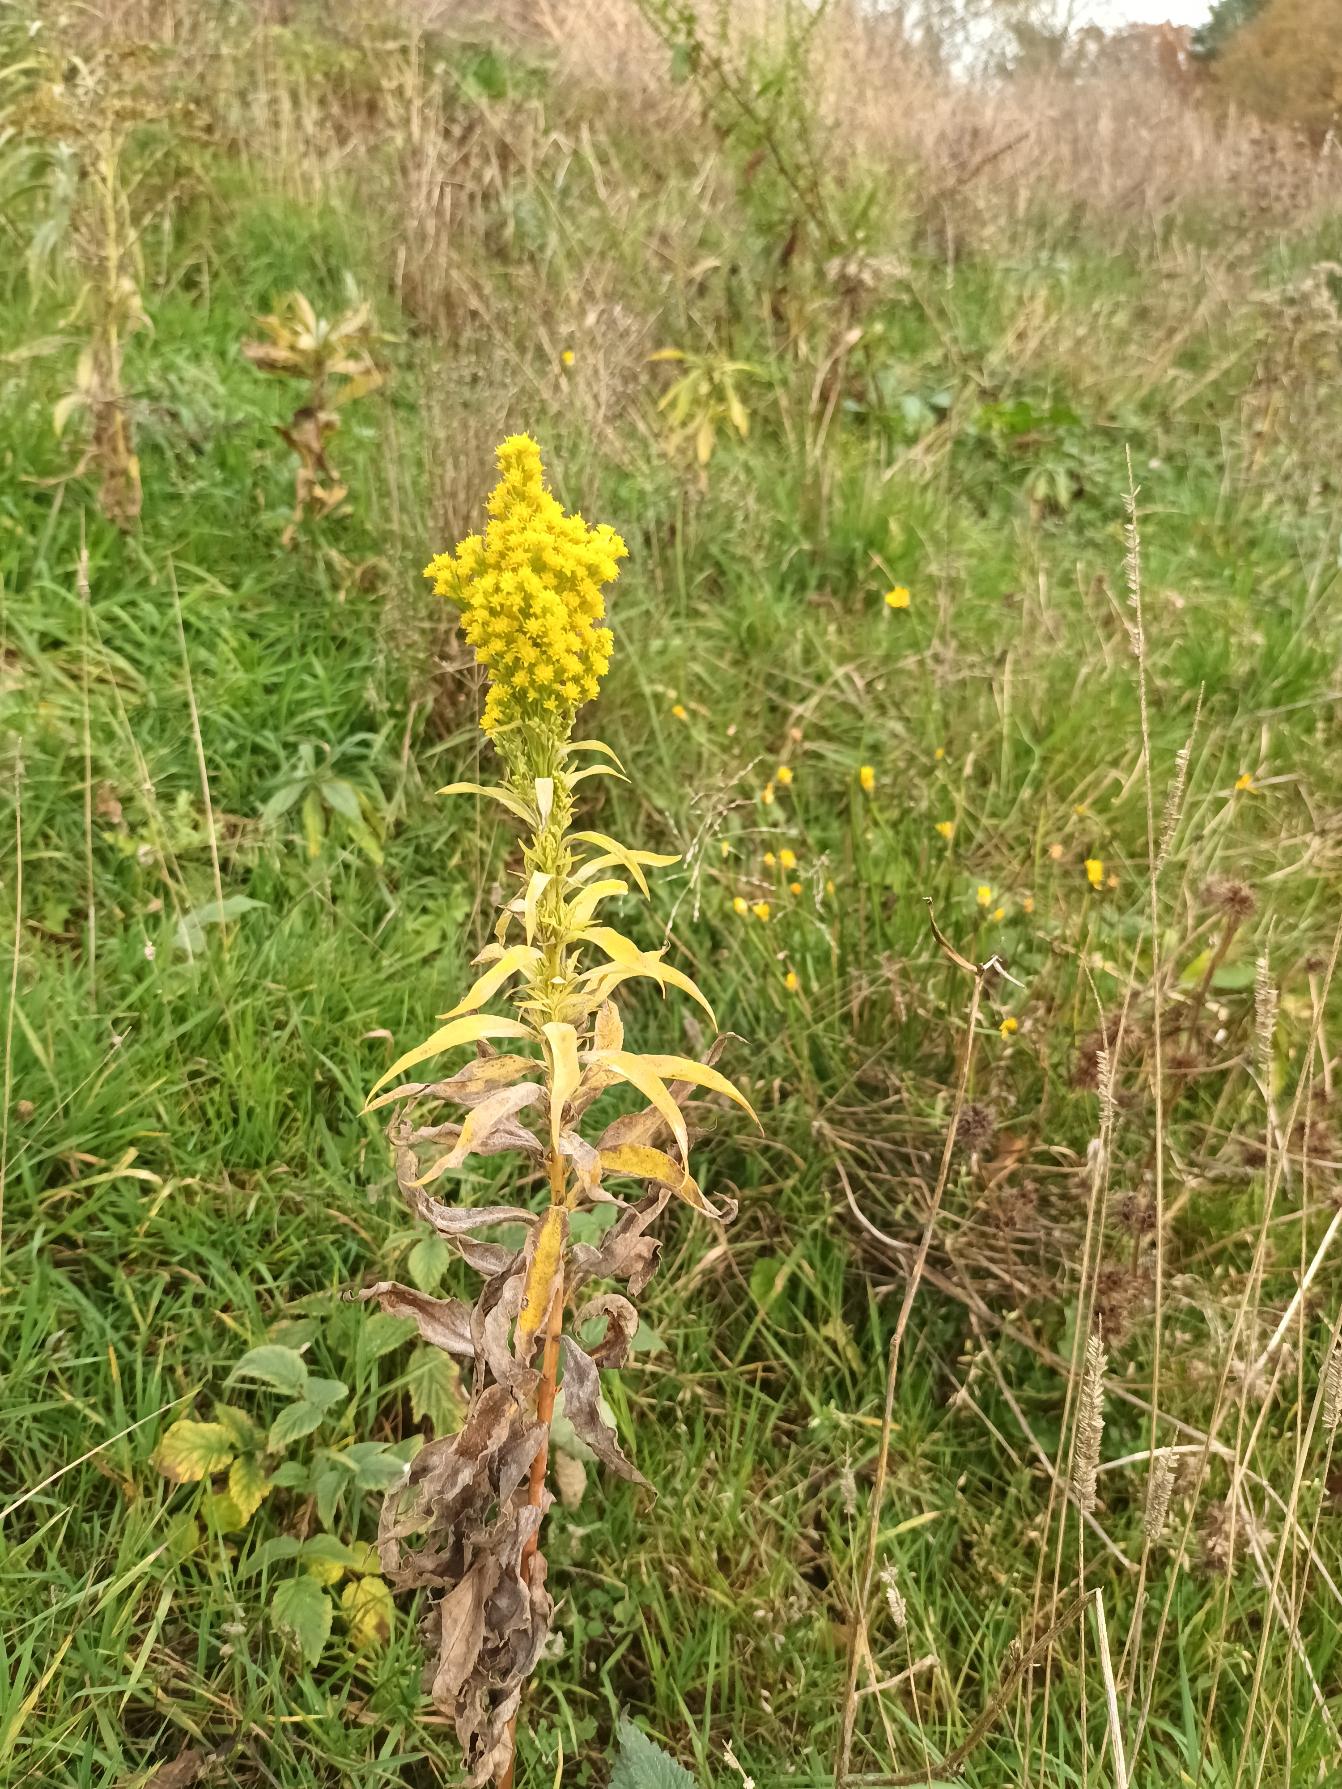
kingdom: Plantae
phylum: Tracheophyta
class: Magnoliopsida
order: Asterales
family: Asteraceae
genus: Solidago
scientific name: Solidago gigantea
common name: Sildig gyldenris
